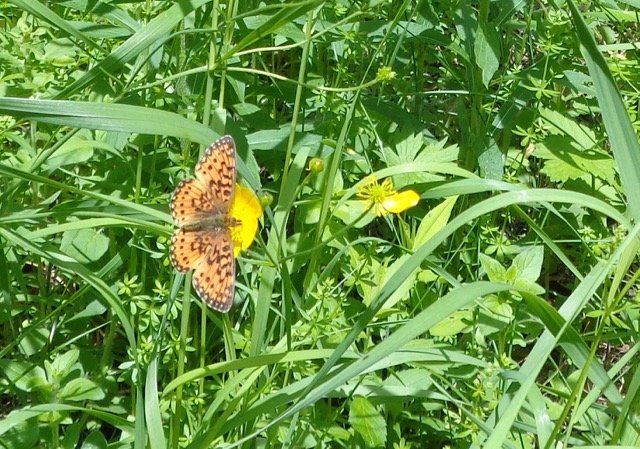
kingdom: Animalia
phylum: Arthropoda
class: Insecta
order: Lepidoptera
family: Nymphalidae
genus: Boloria
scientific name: Boloria selene
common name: Silver-bordered Fritillary
